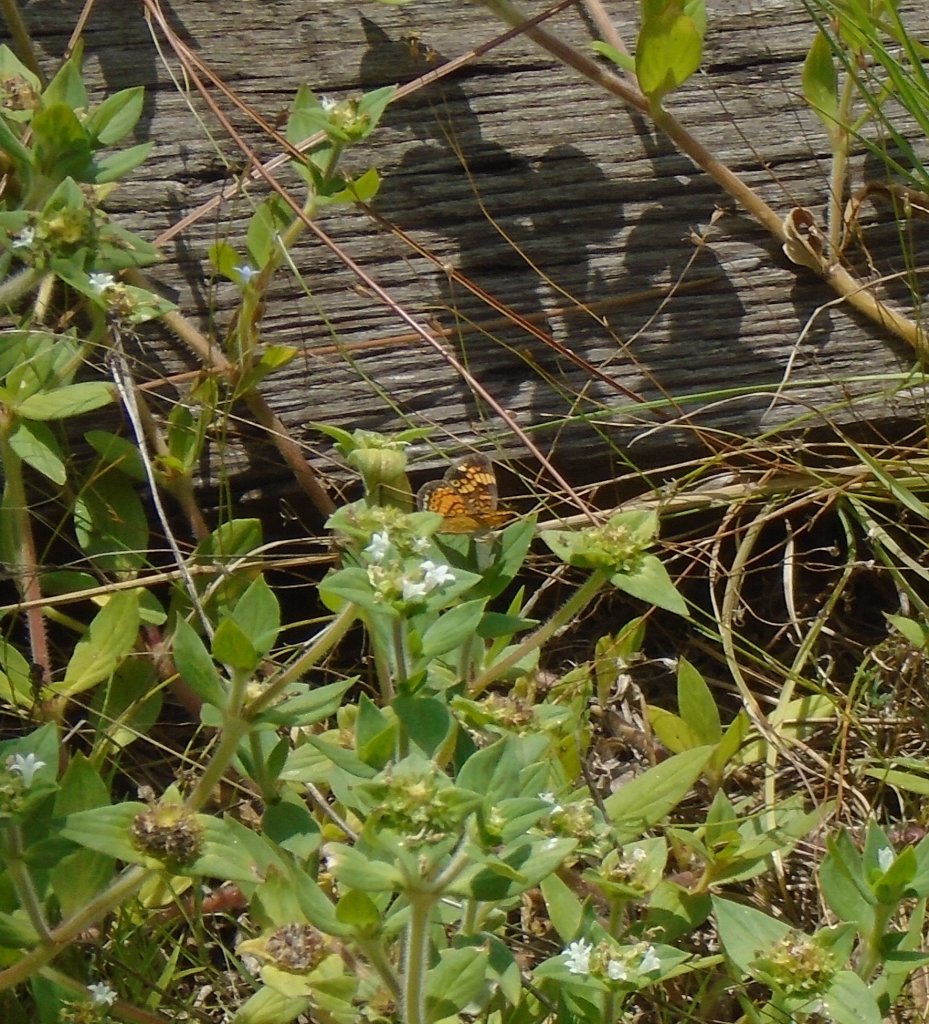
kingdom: Animalia
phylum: Arthropoda
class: Insecta
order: Lepidoptera
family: Nymphalidae
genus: Phyciodes
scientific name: Phyciodes tharos
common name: Pearl Crescent
